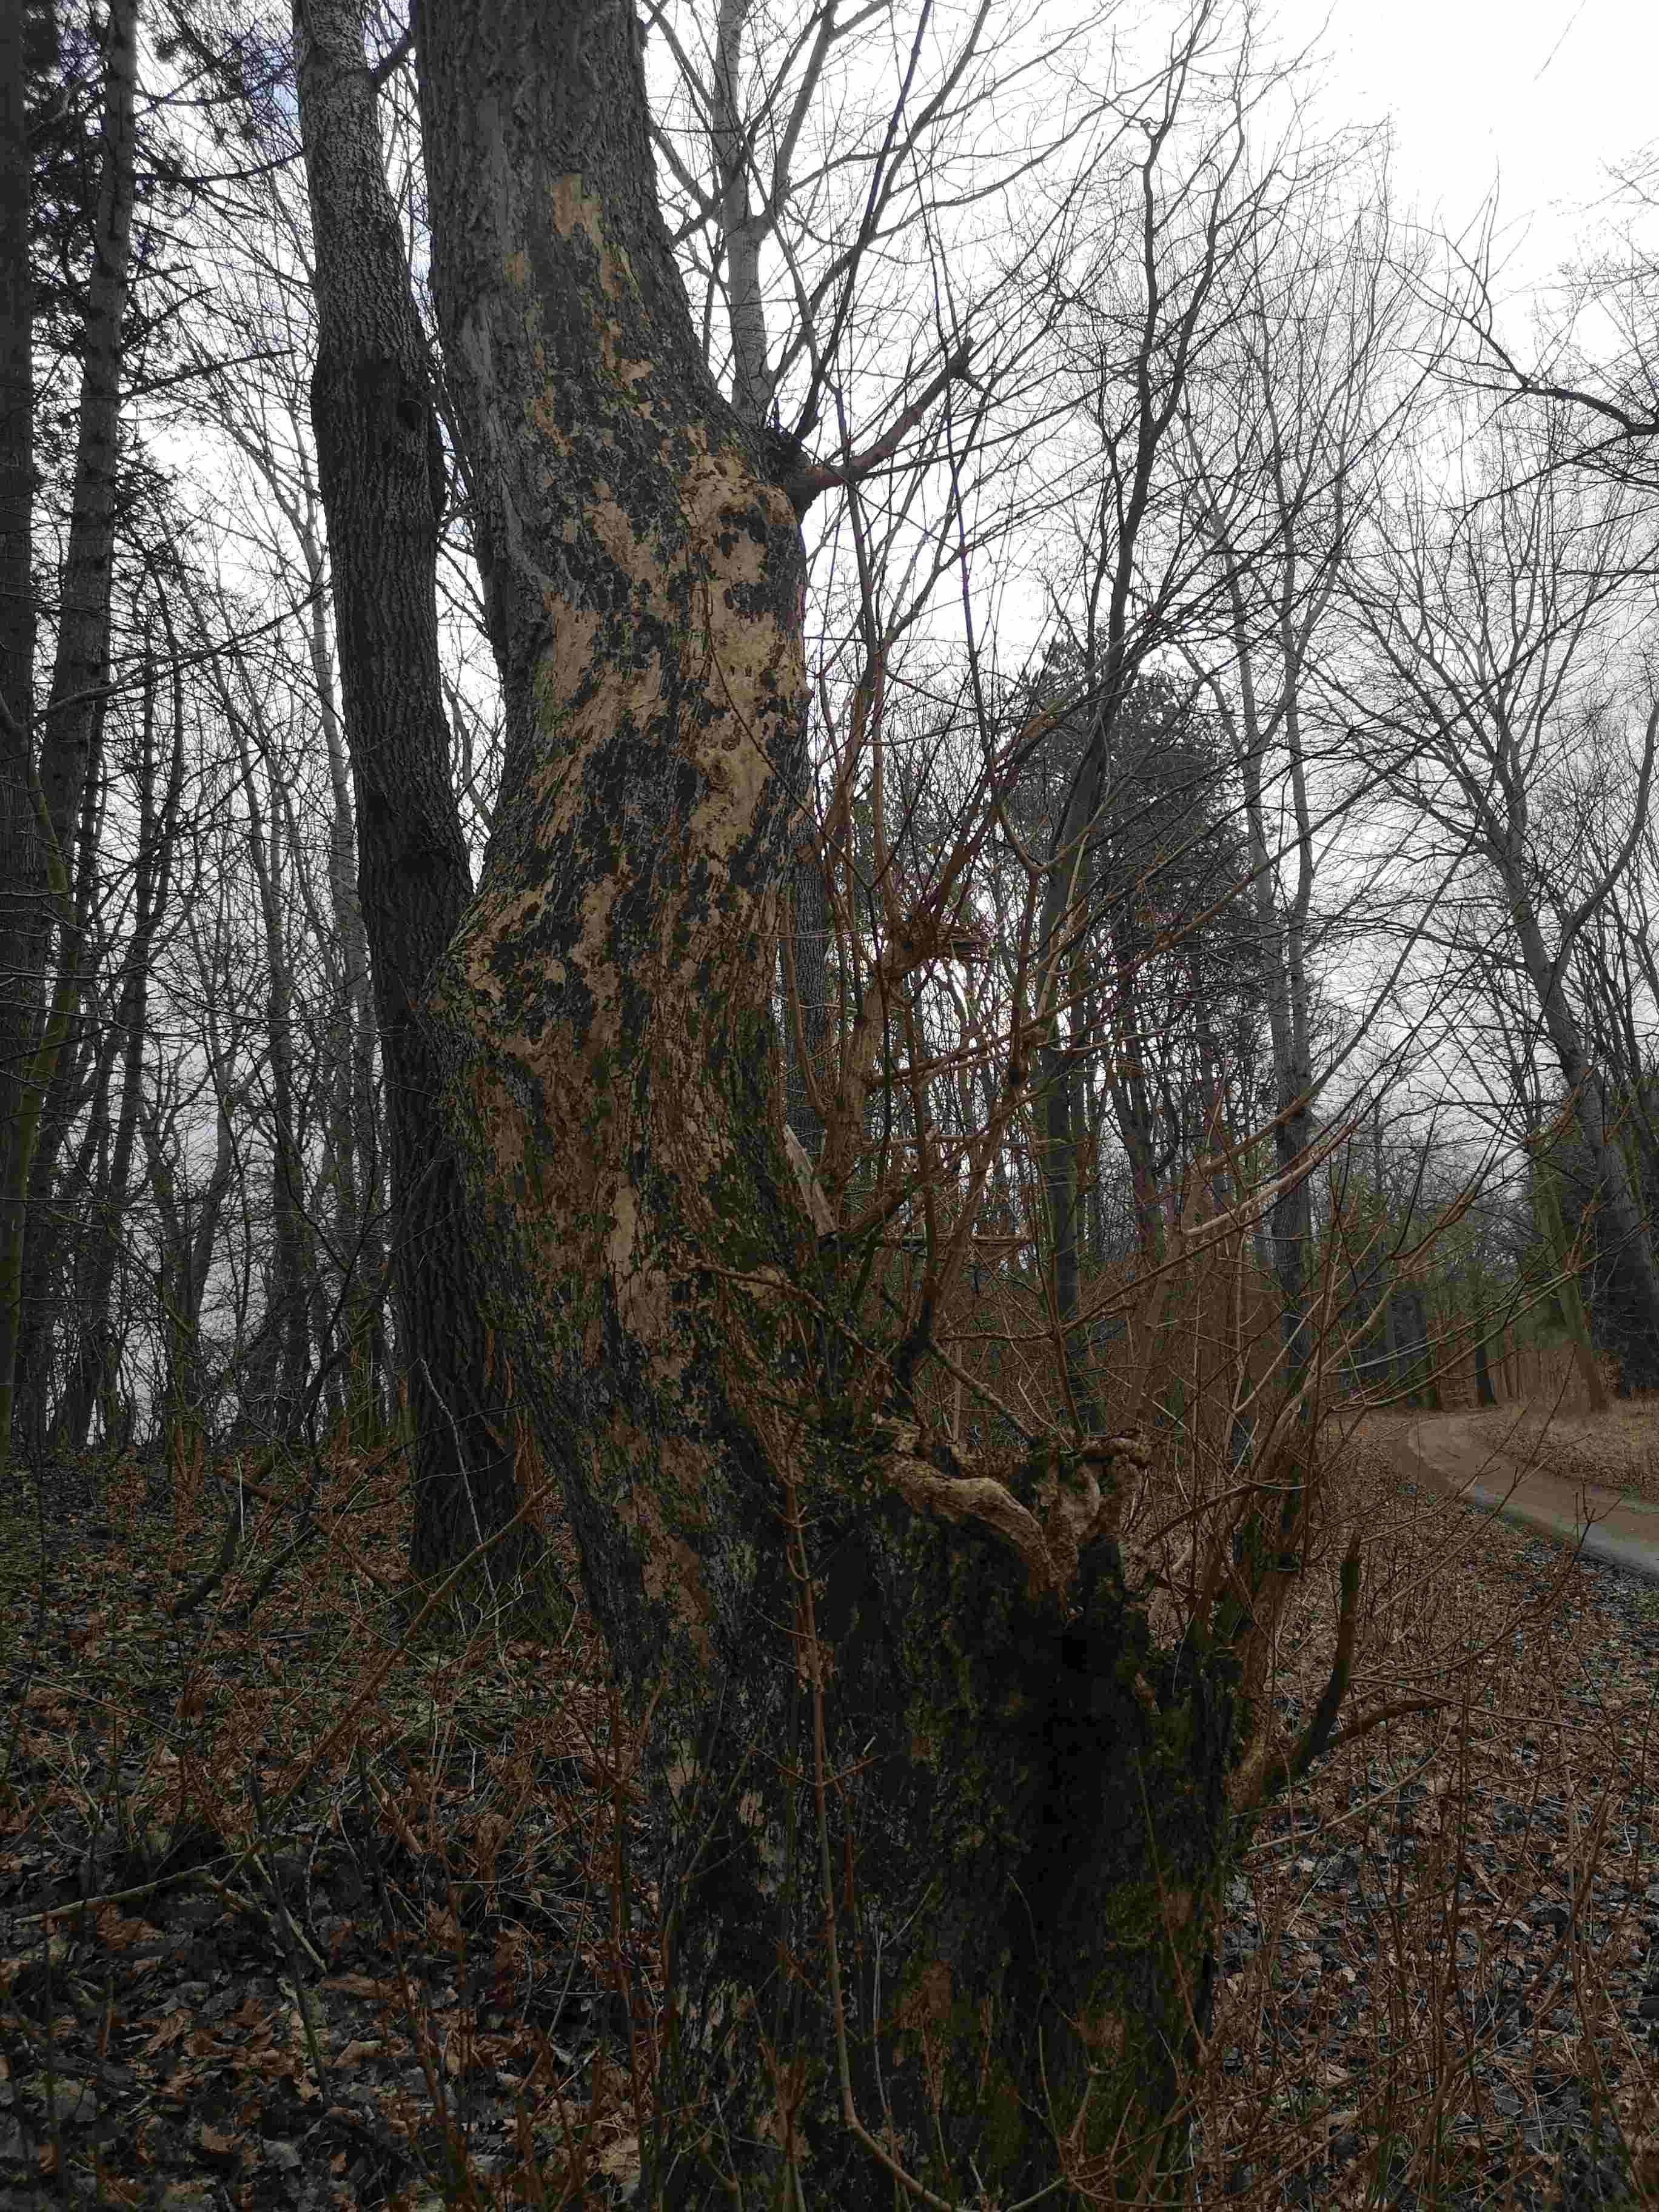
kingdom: Fungi
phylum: Basidiomycota
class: Agaricomycetes
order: Agaricales
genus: Dendrothele
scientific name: Dendrothele acerina
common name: navr-kalkplet
